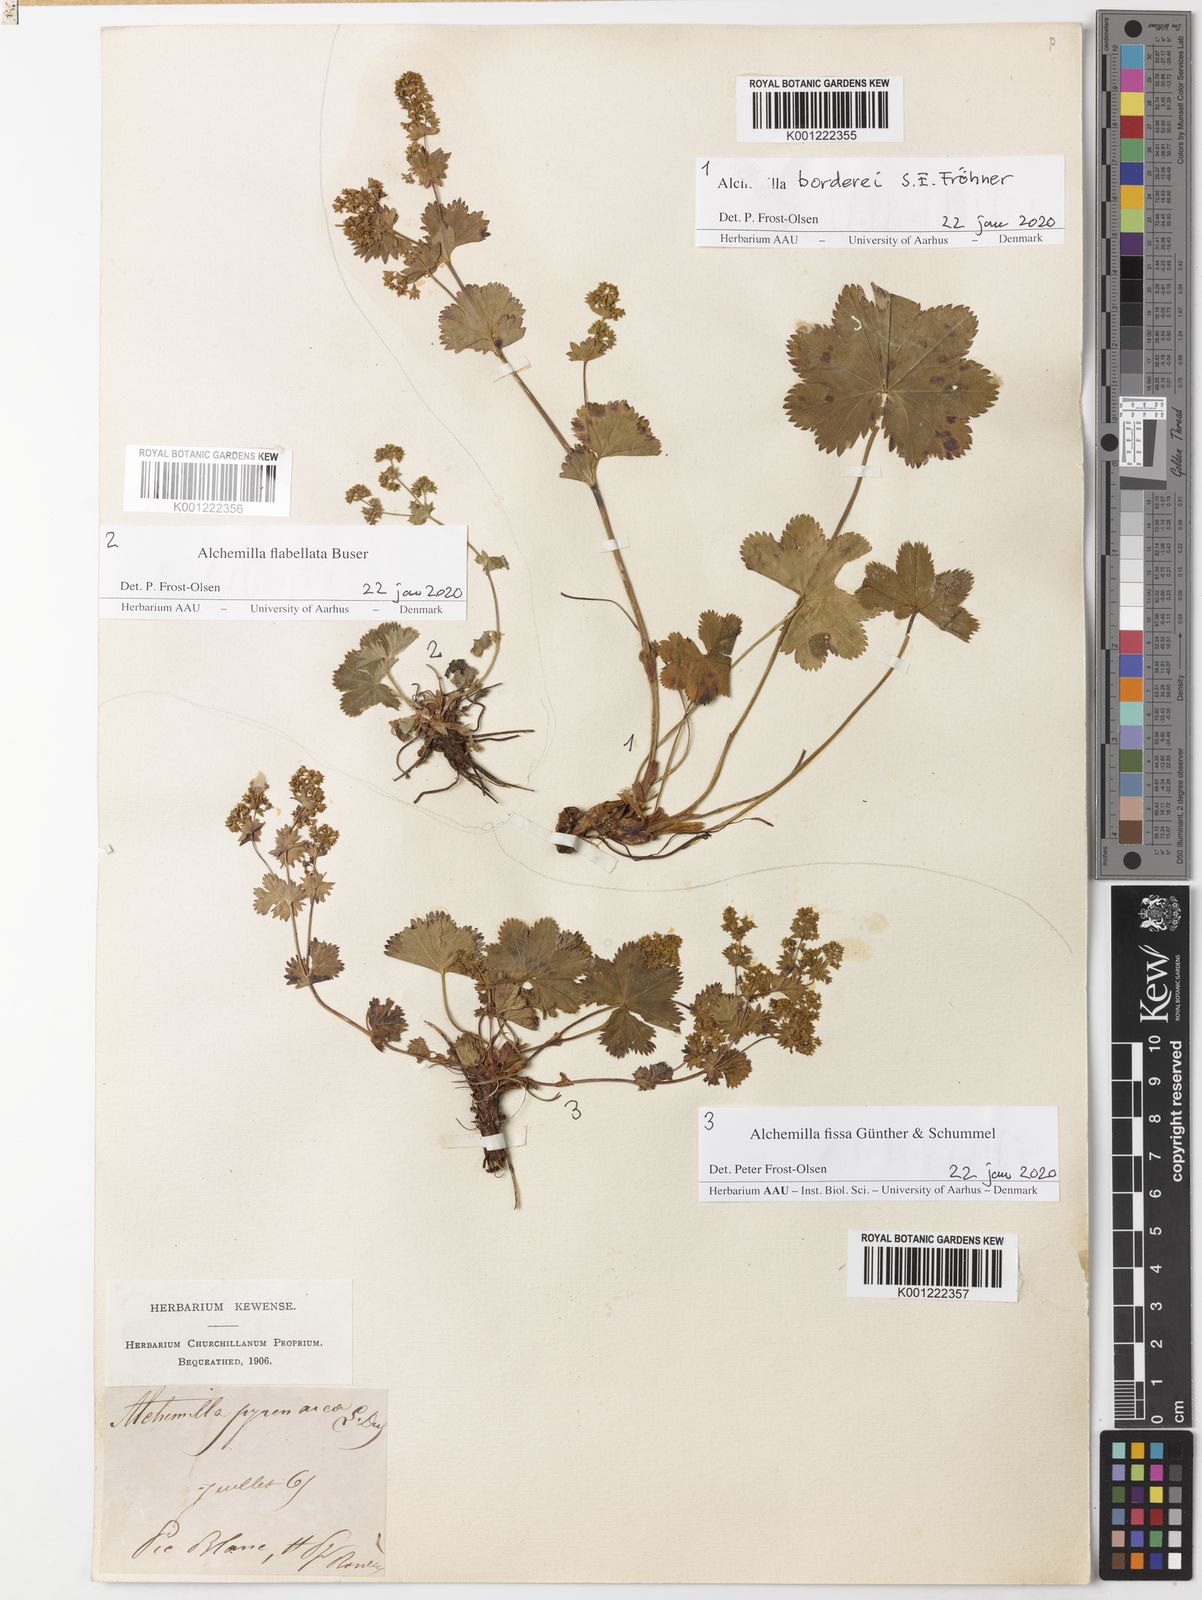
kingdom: Plantae
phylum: Tracheophyta
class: Magnoliopsida
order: Rosales
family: Rosaceae
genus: Alchemilla
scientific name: Alchemilla flabellata
